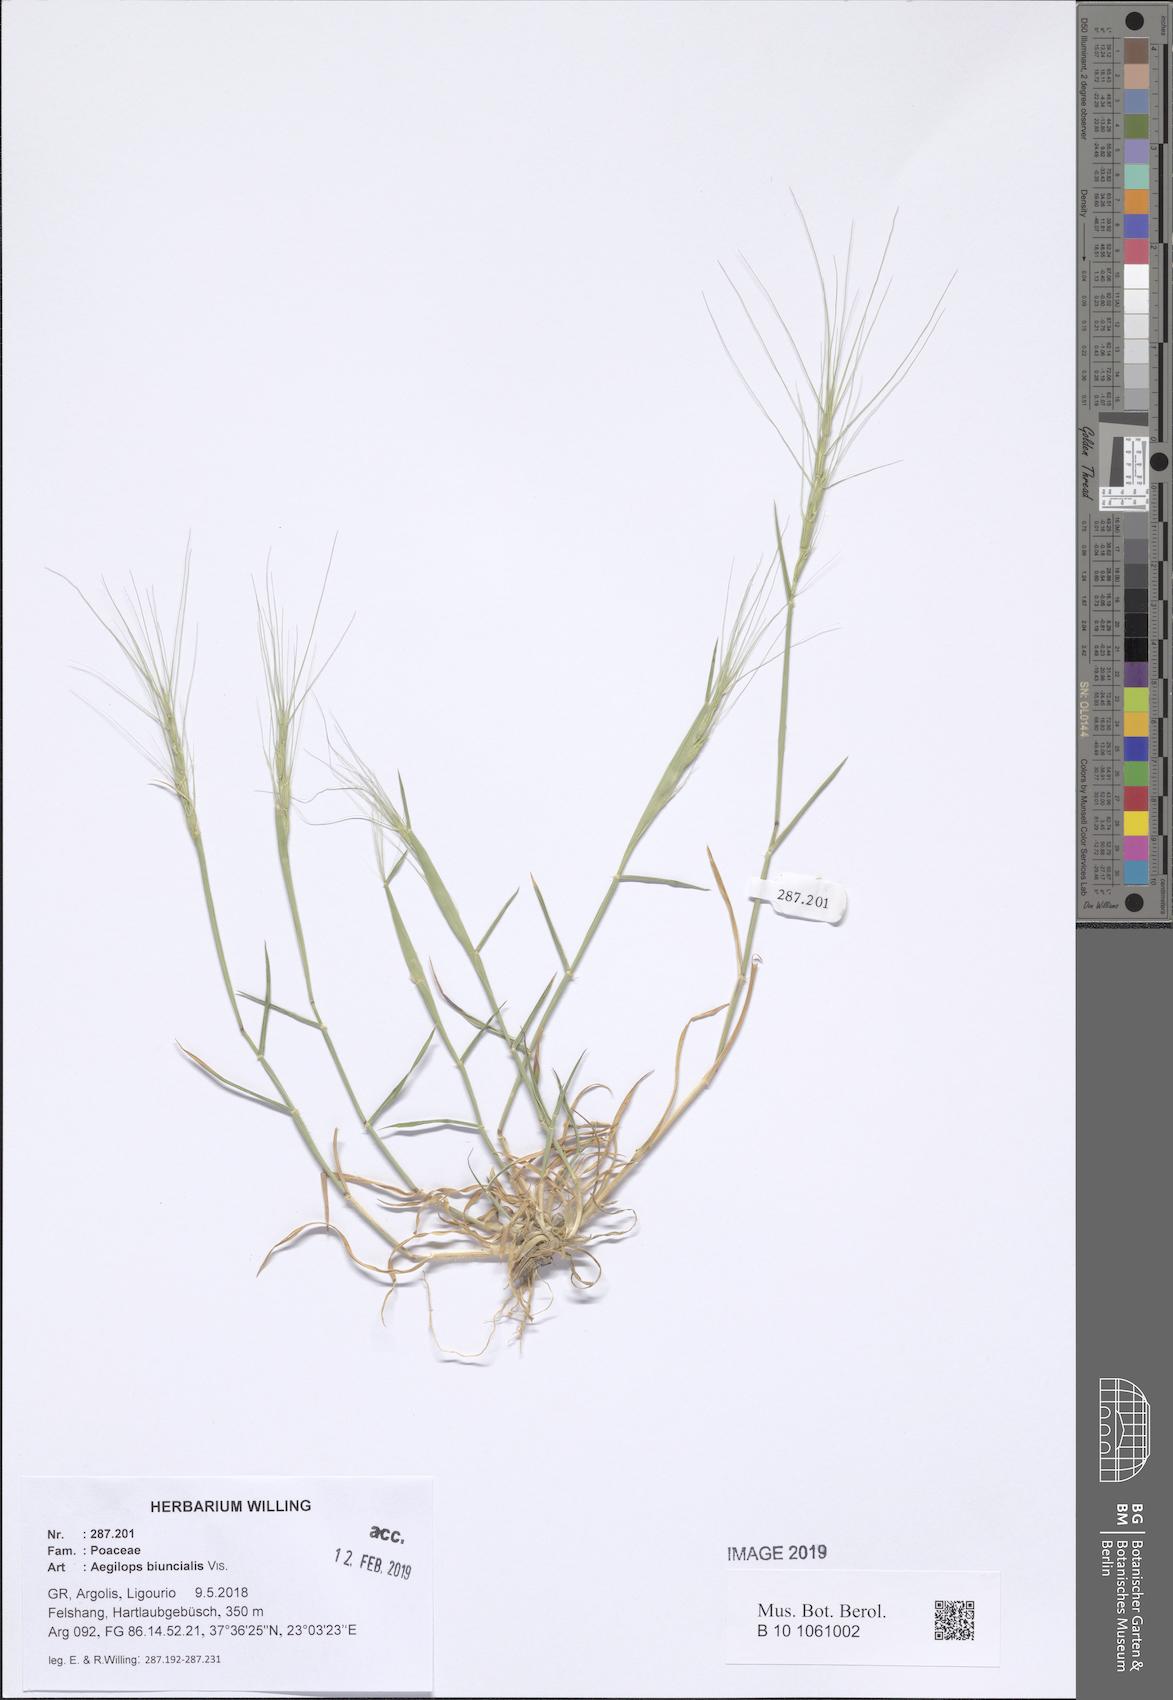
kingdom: Plantae
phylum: Tracheophyta
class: Liliopsida
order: Poales
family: Poaceae
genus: Aegilops
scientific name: Aegilops biuncialis
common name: Mediterranean aegilops
